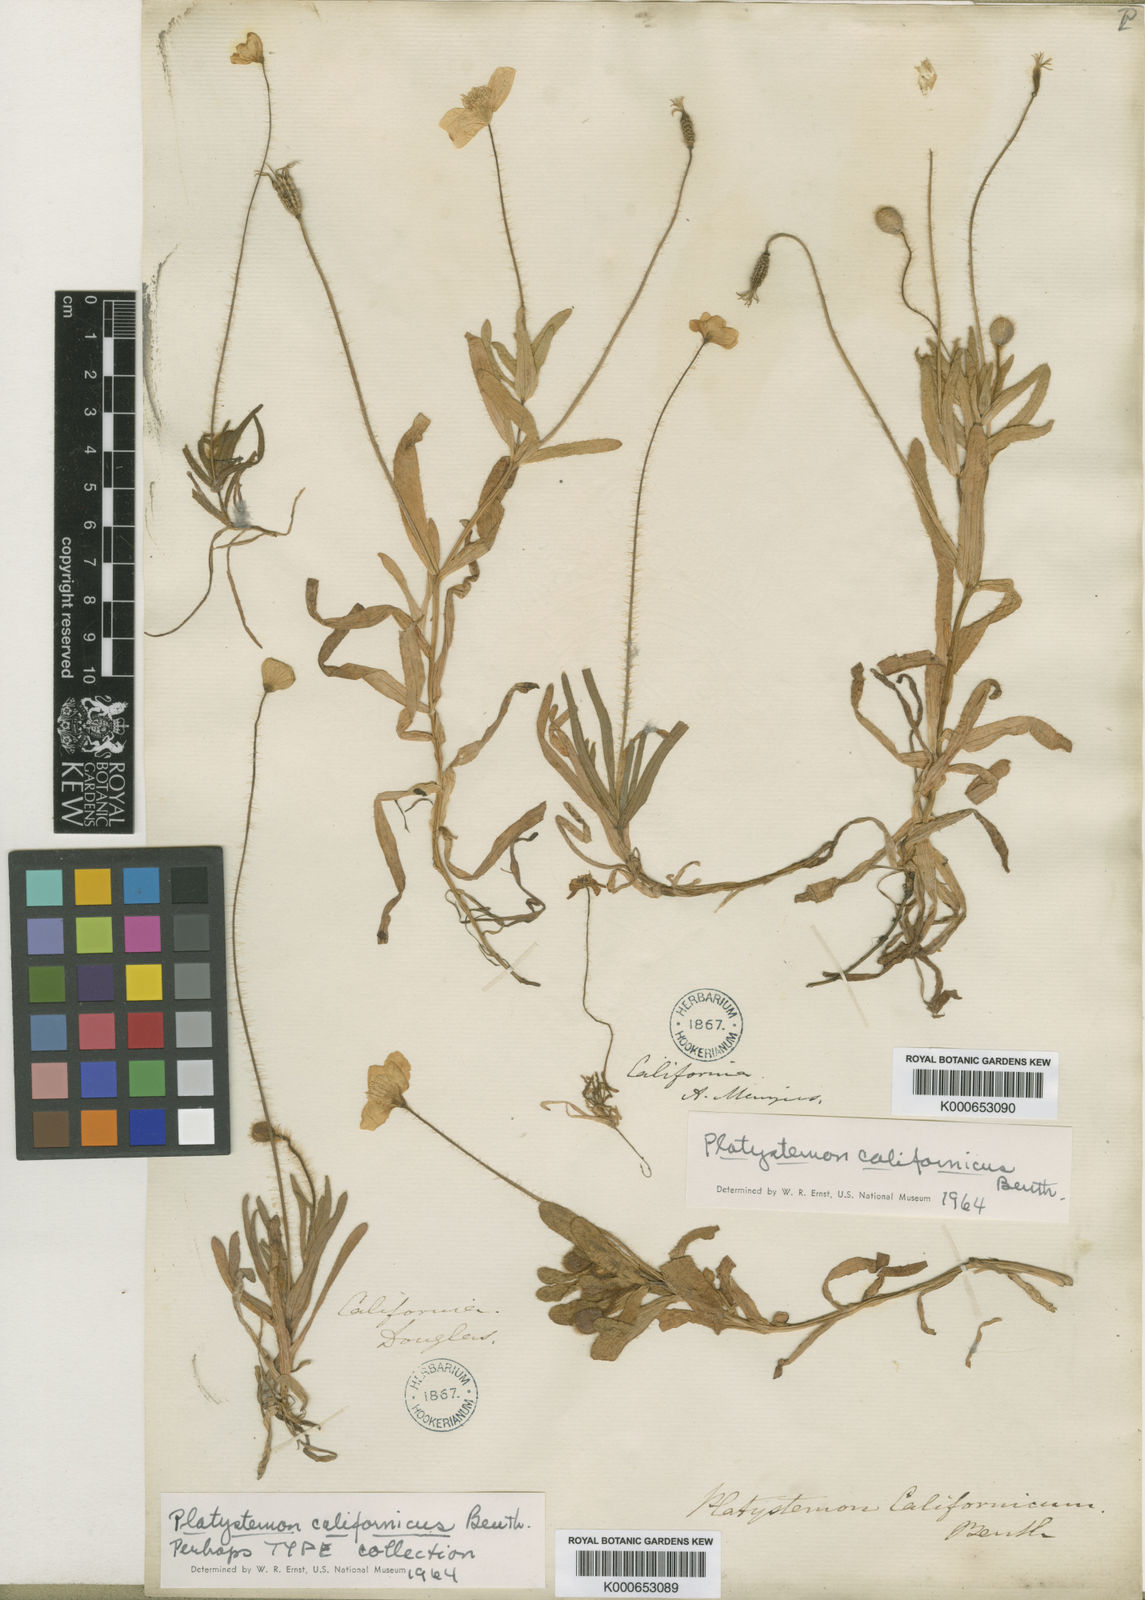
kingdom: Plantae
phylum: Tracheophyta
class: Magnoliopsida
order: Ranunculales
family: Papaveraceae
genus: Platystemon
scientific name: Platystemon californicus
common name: Cream-cups
